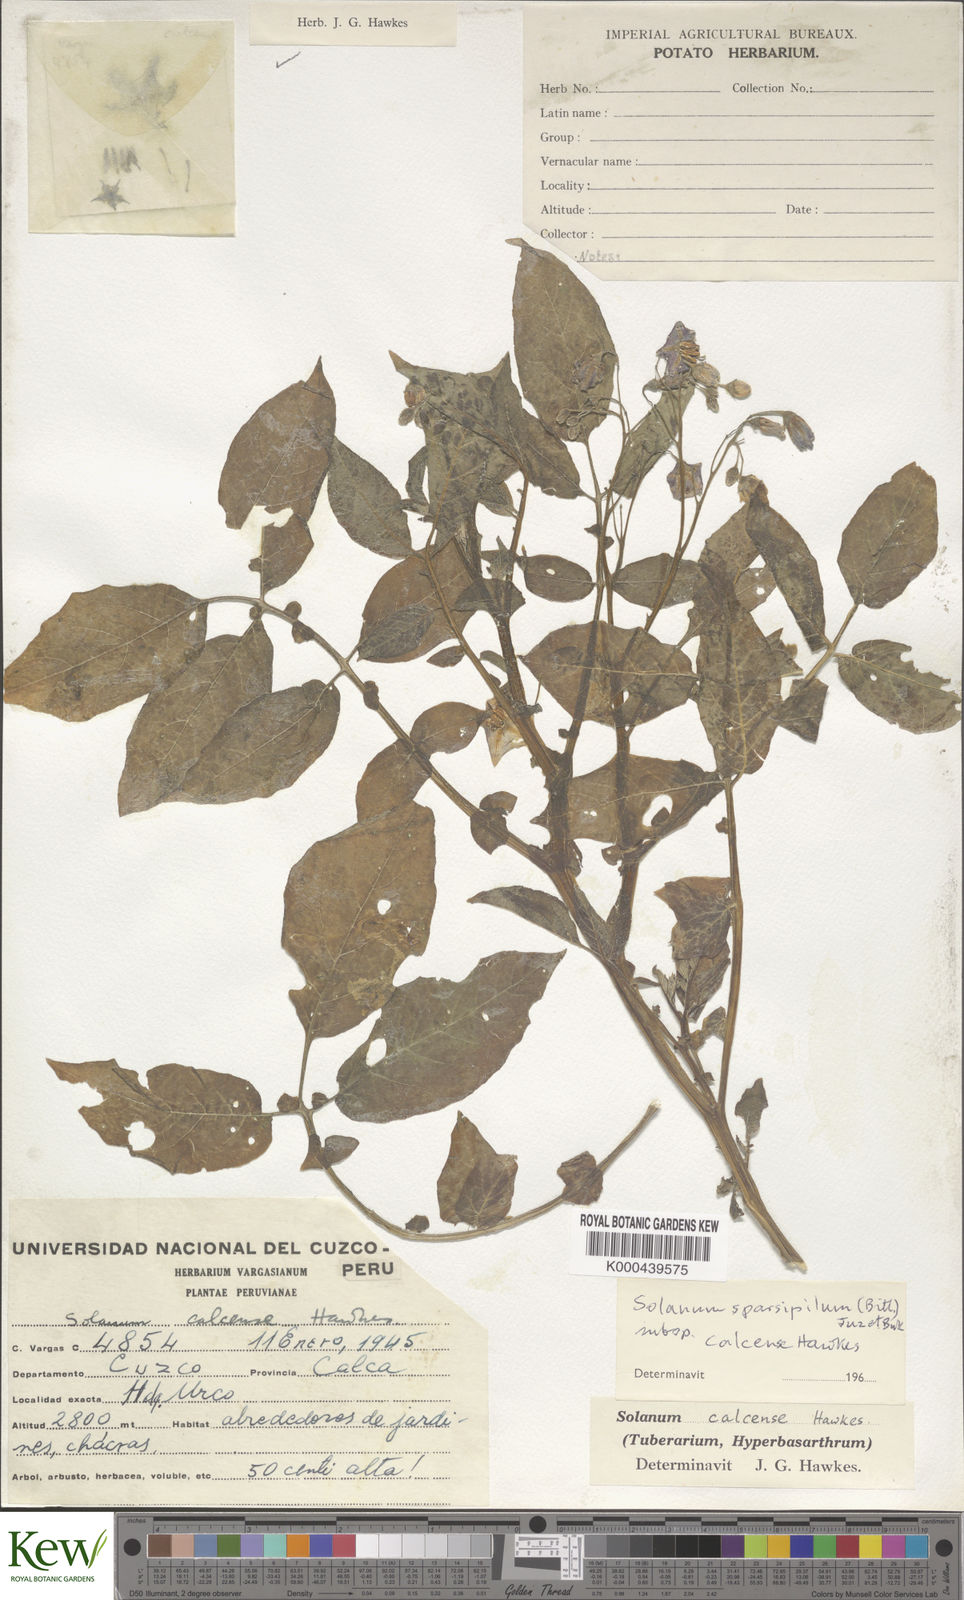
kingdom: Plantae
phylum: Tracheophyta
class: Magnoliopsida
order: Solanales
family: Solanaceae
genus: Solanum
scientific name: Solanum brevicaule
